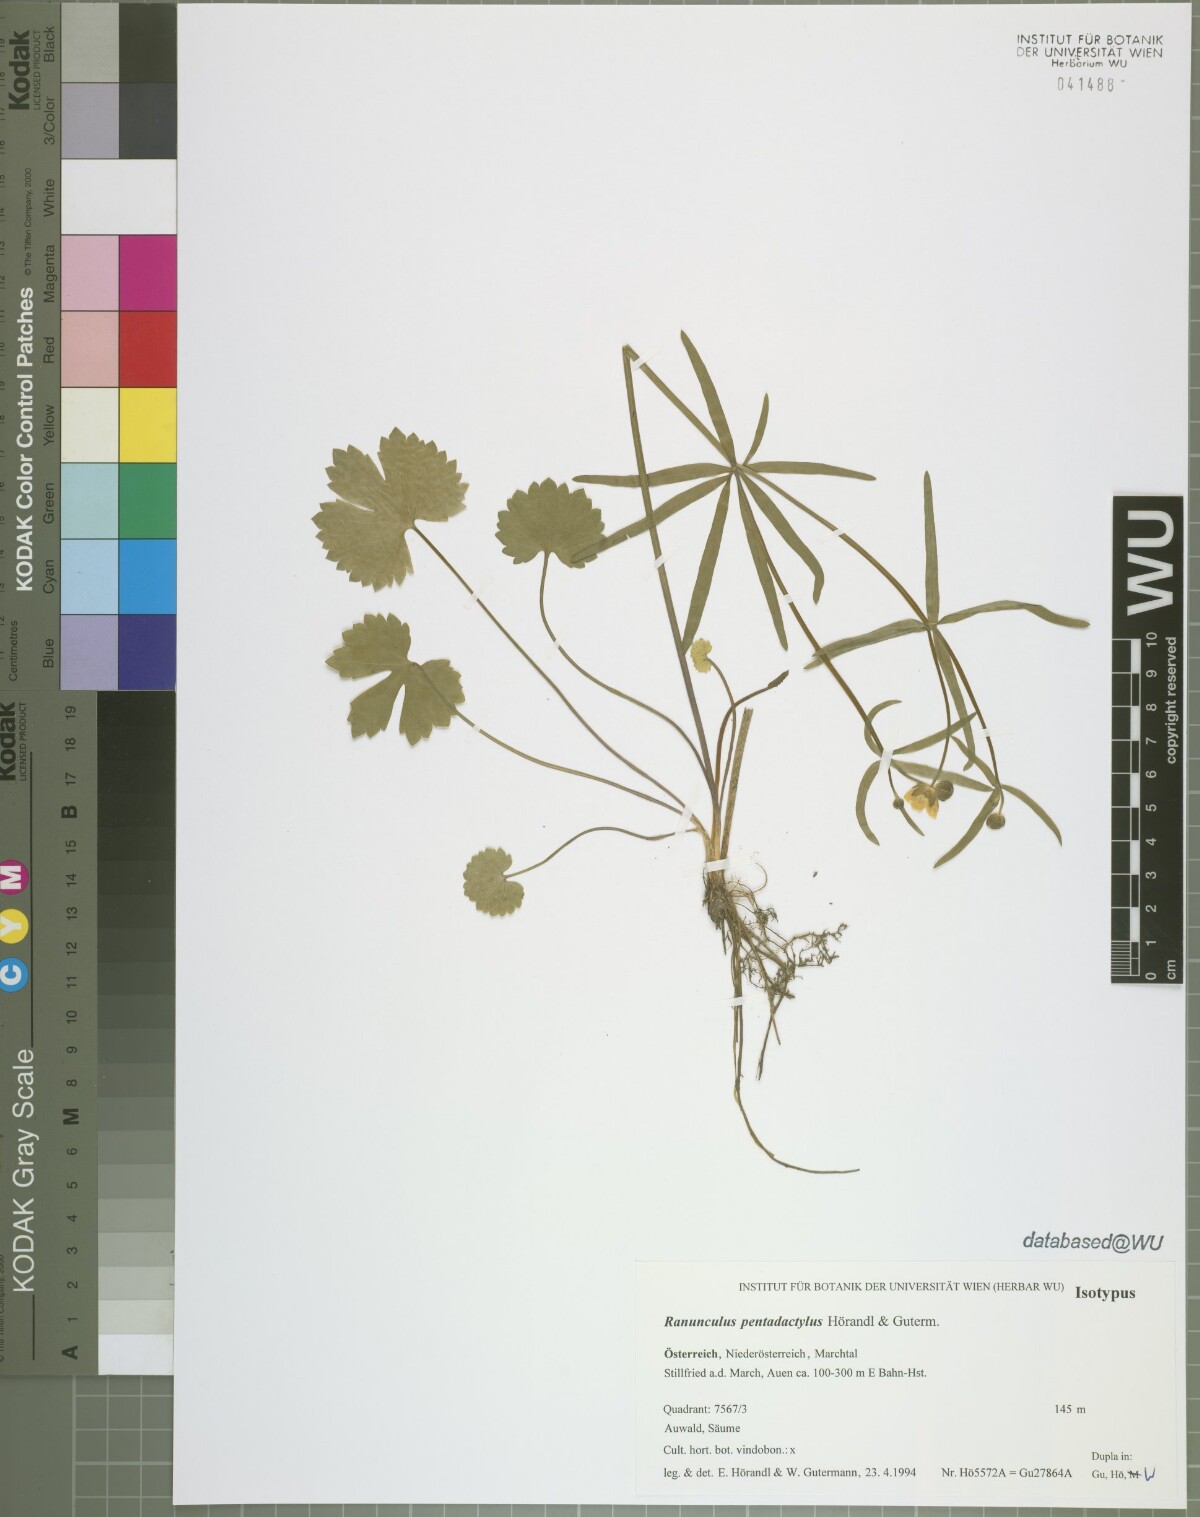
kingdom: Plantae
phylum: Tracheophyta
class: Magnoliopsida
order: Ranunculales
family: Ranunculaceae
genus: Ranunculus
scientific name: Ranunculus pentadactylus
